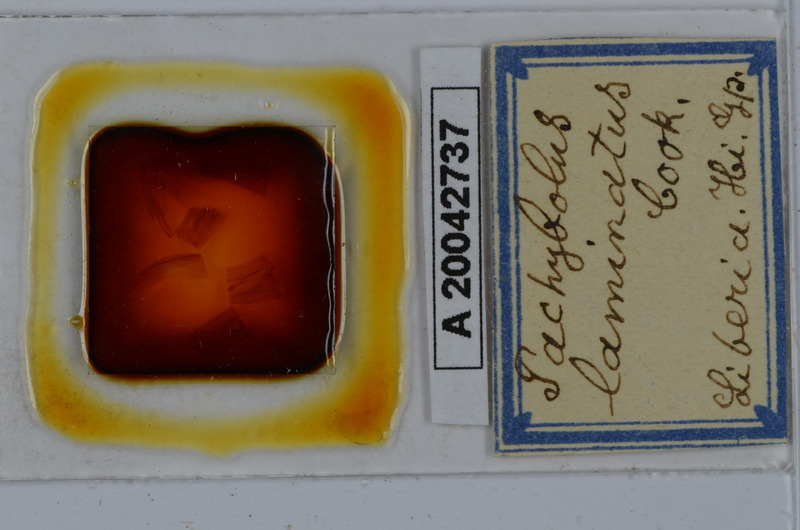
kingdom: Animalia
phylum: Arthropoda
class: Diplopoda
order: Spirobolida
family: Pachybolidae
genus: Pelmatojulus
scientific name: Pelmatojulus laminatus
